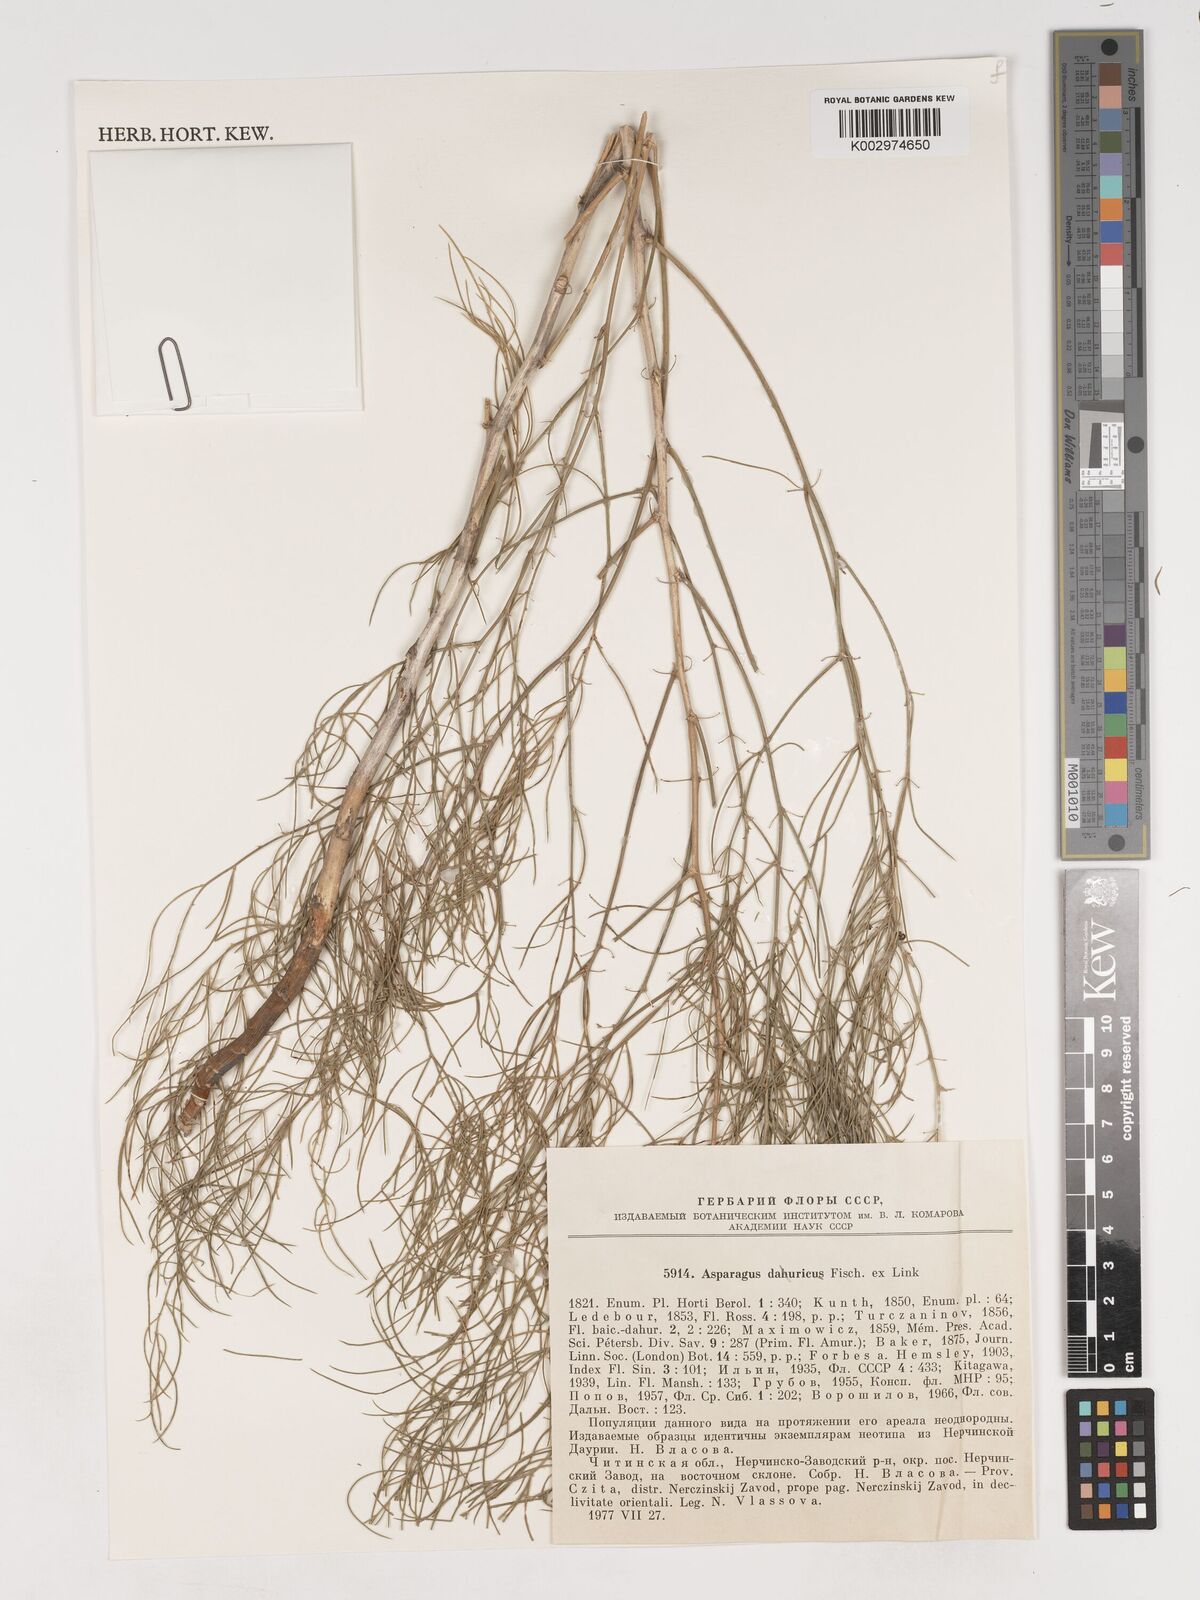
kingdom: Plantae
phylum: Tracheophyta
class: Liliopsida
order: Asparagales
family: Asparagaceae
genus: Asparagus
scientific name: Asparagus dauricus
